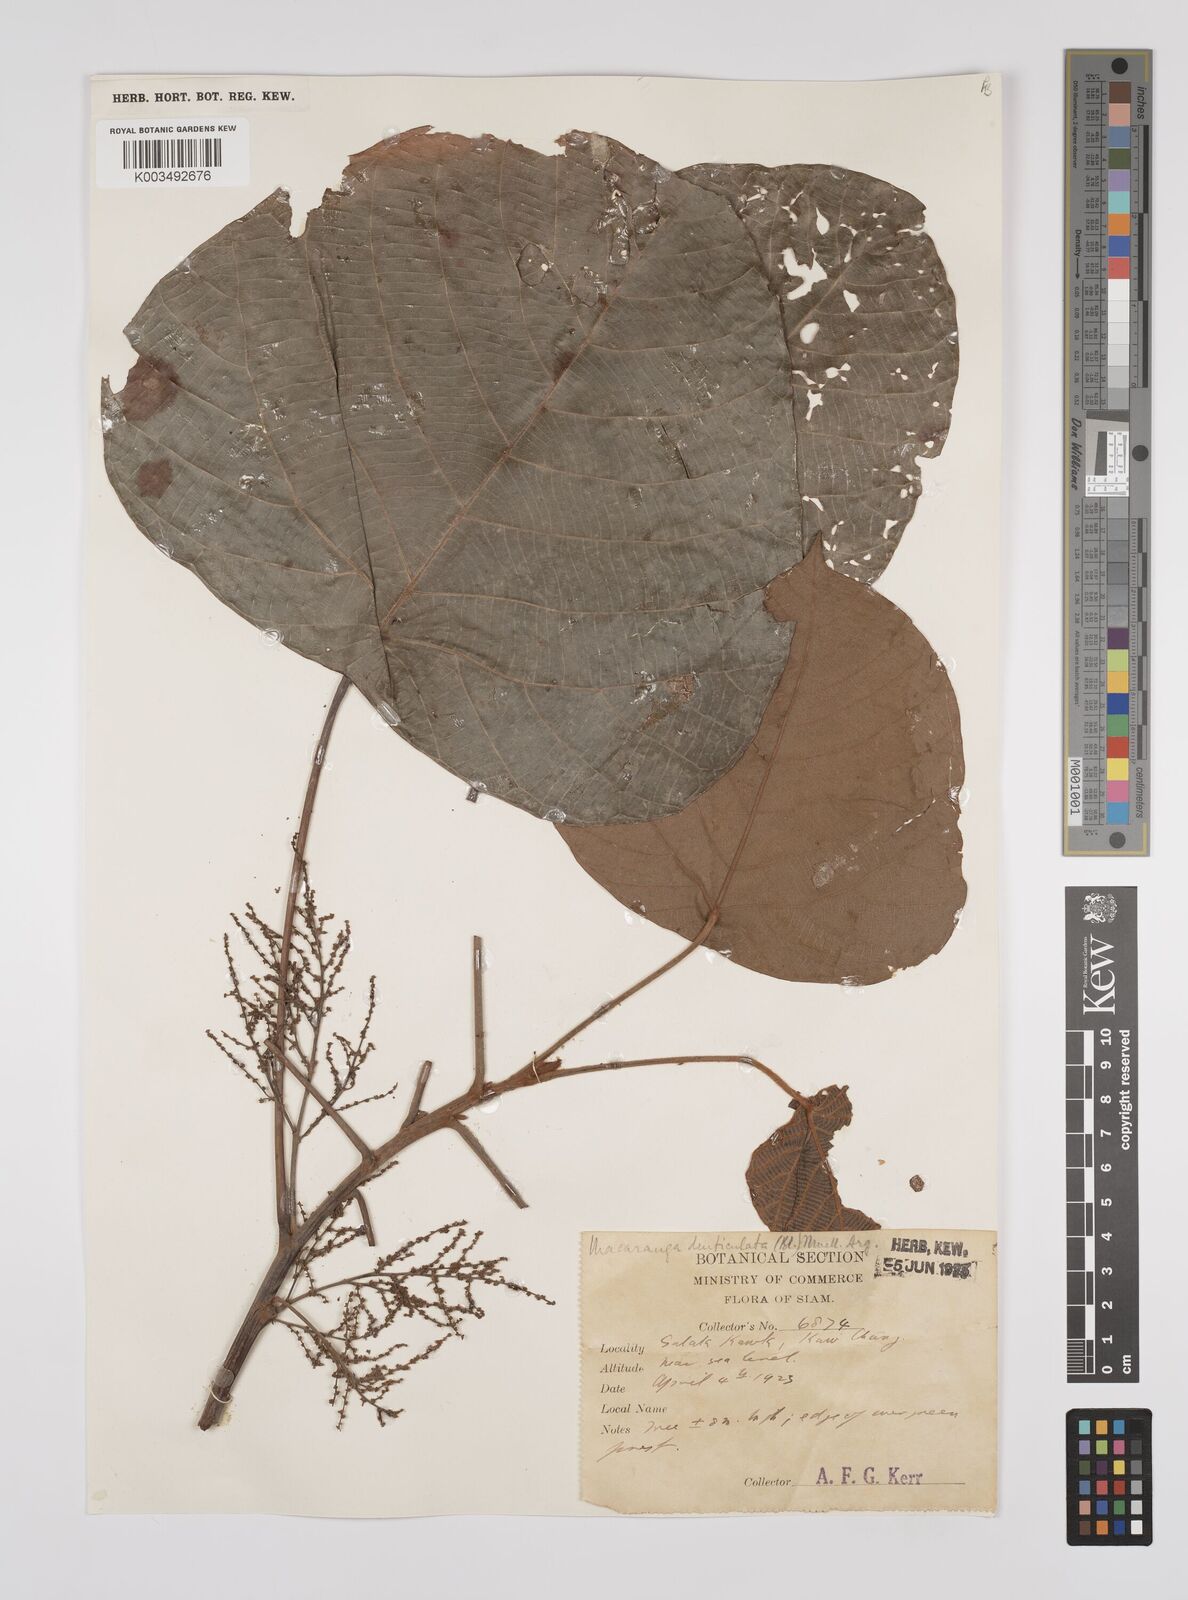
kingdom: Plantae
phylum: Tracheophyta
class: Magnoliopsida
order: Malpighiales
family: Euphorbiaceae
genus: Macaranga
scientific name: Macaranga denticulata
